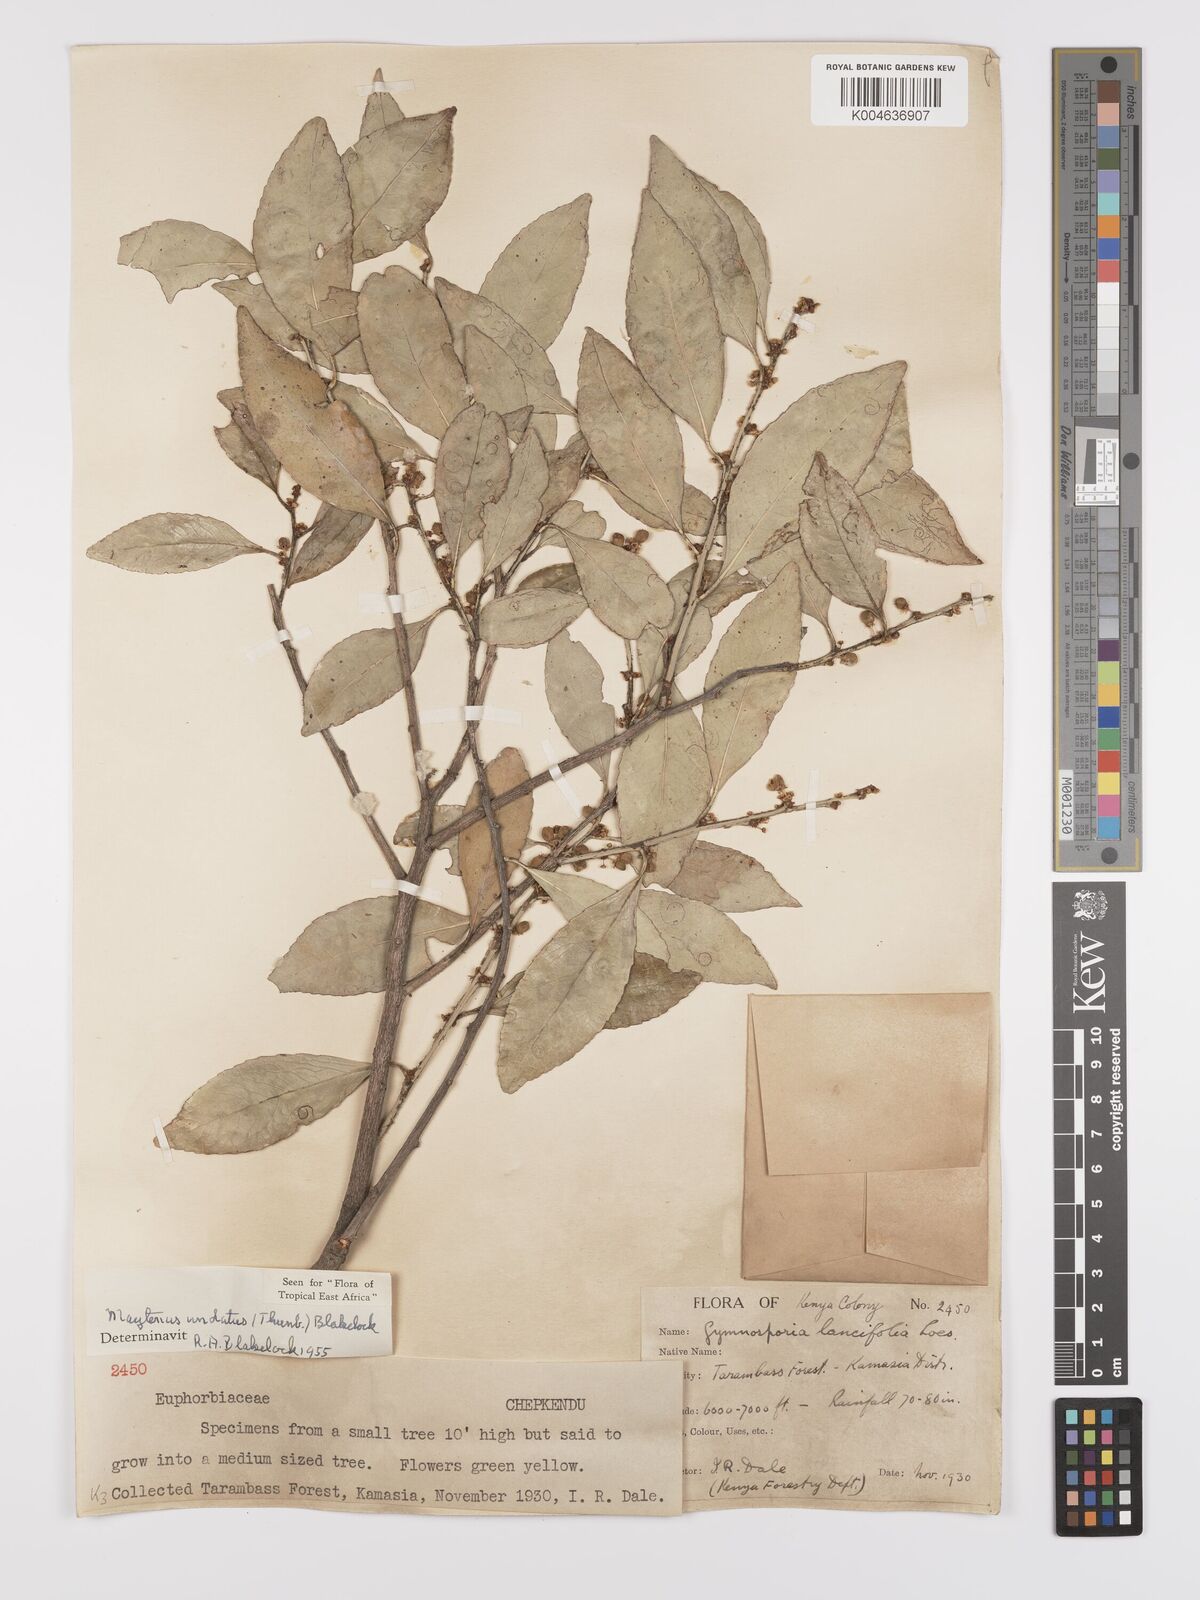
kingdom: Plantae
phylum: Tracheophyta
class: Magnoliopsida
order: Celastrales
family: Celastraceae
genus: Gymnosporia
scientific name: Gymnosporia undata
